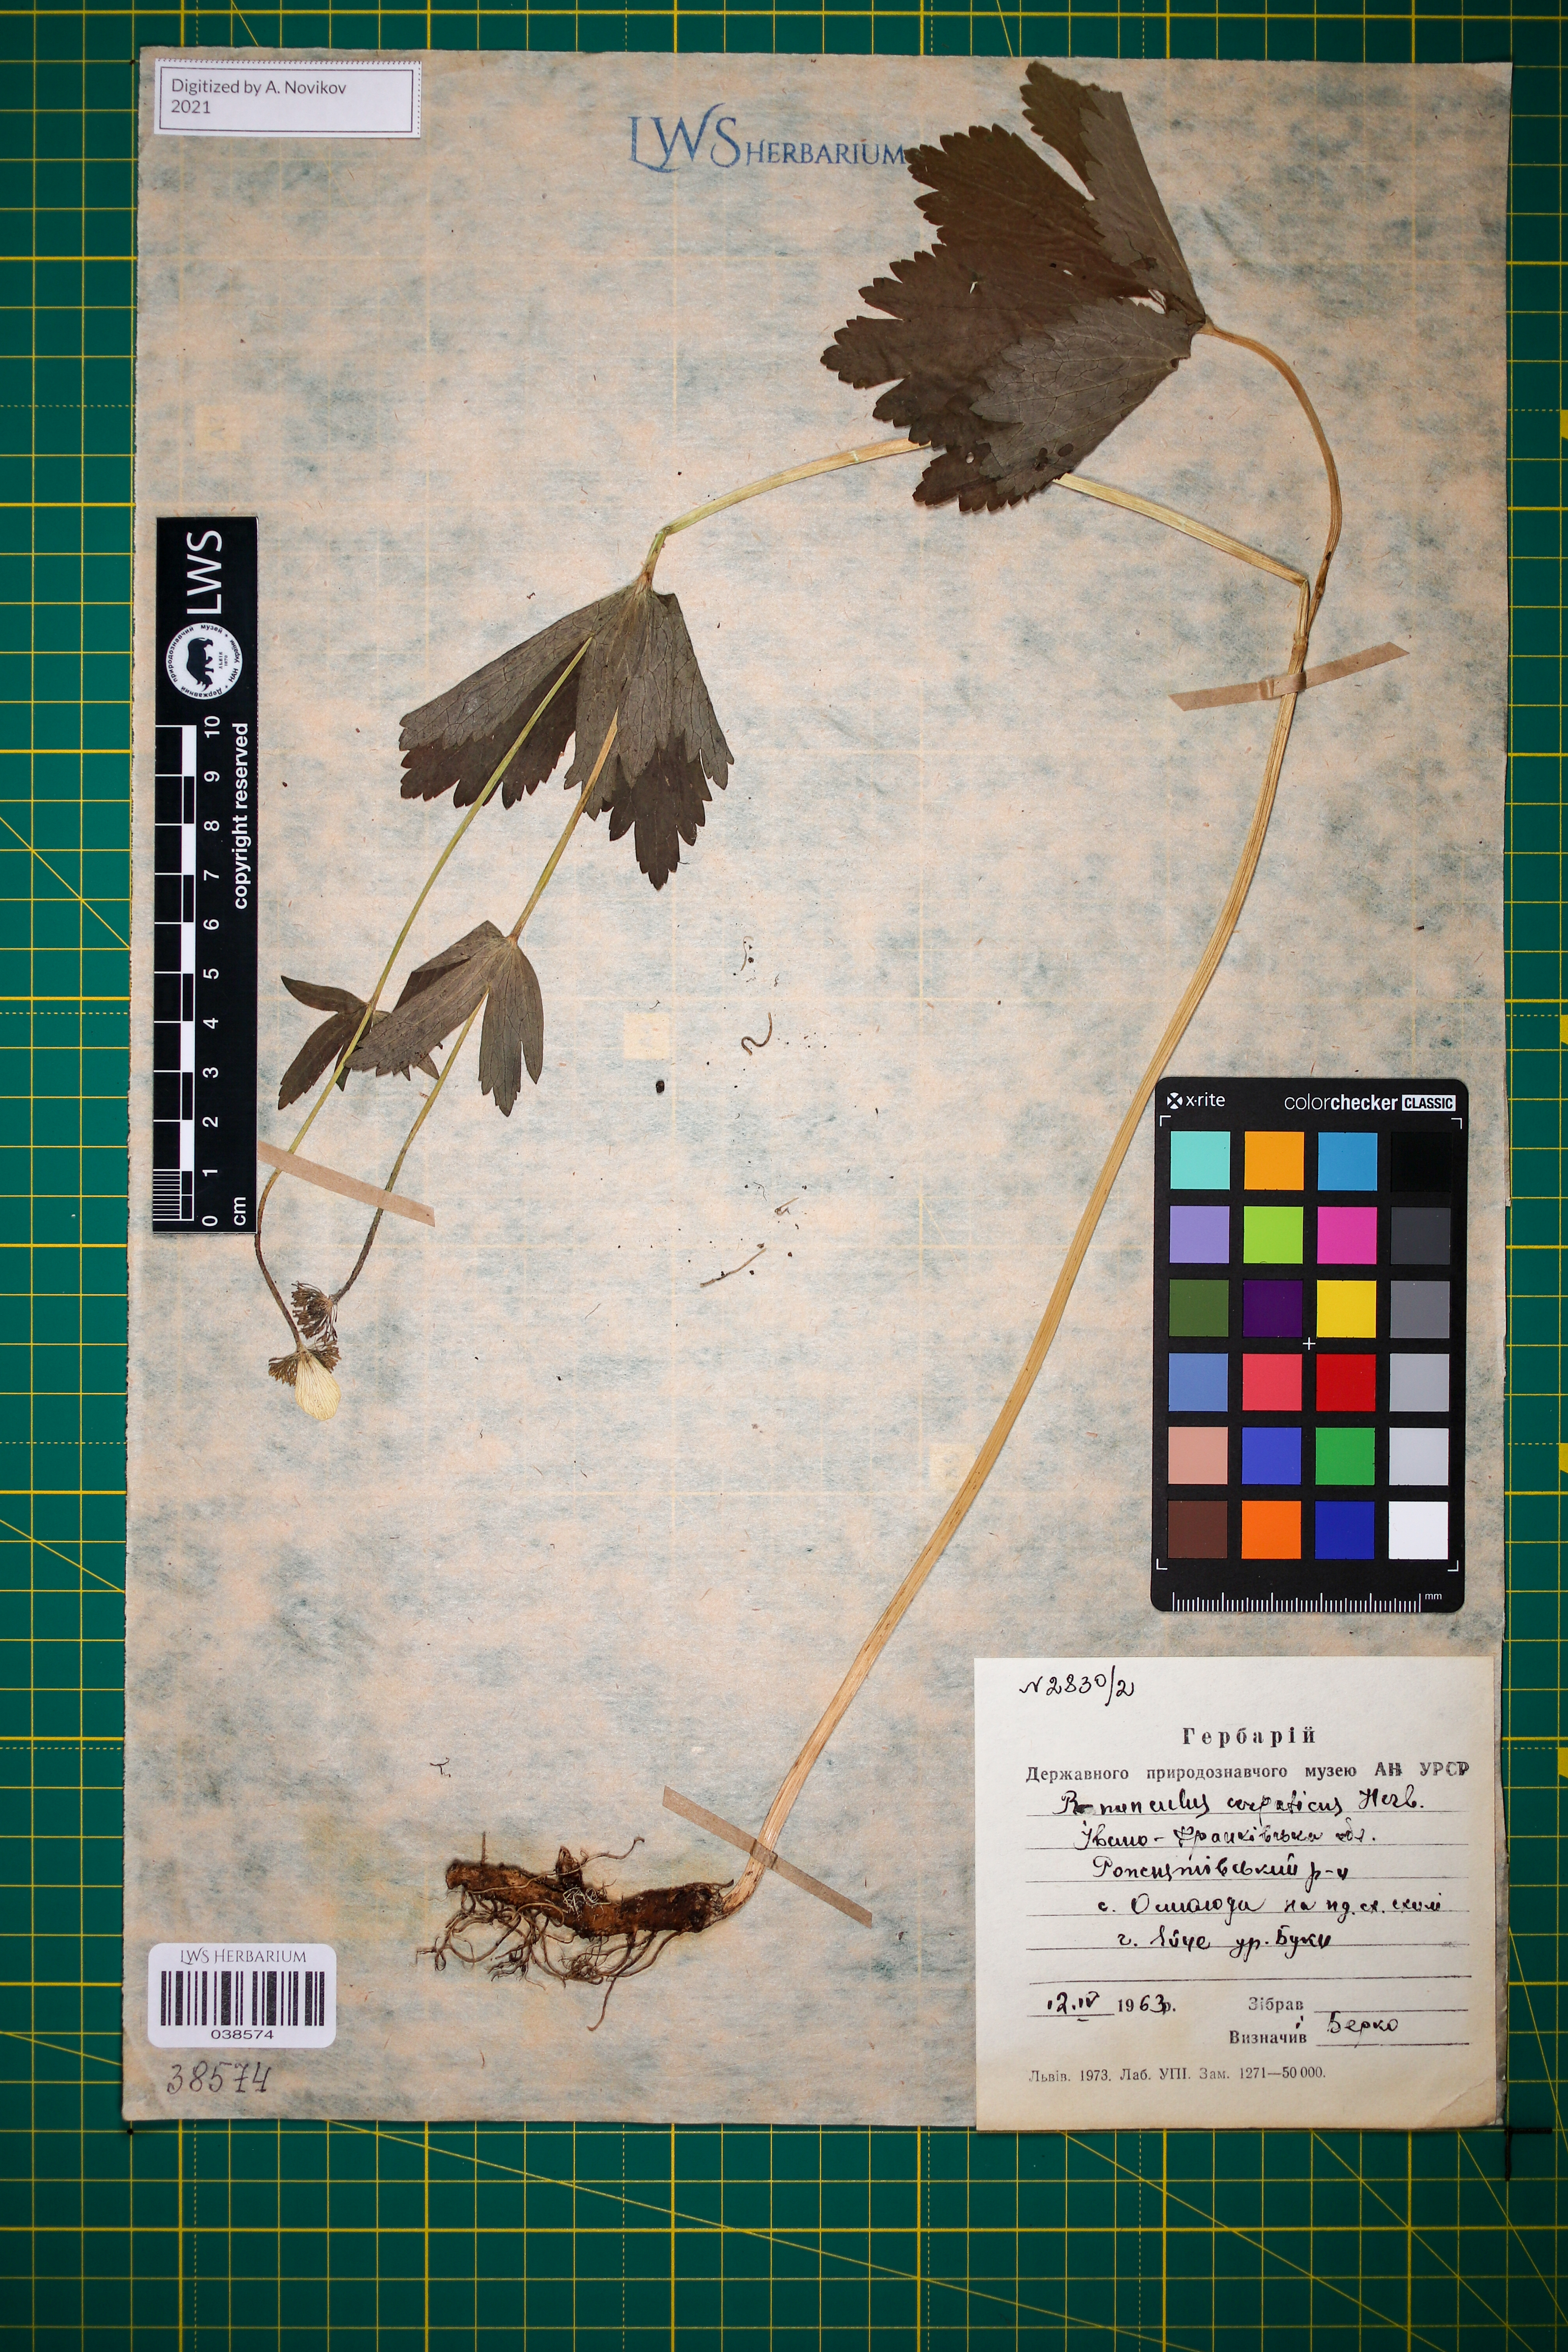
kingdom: Plantae
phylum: Tracheophyta
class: Magnoliopsida
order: Ranunculales
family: Ranunculaceae
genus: Ranunculus
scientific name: Ranunculus carpaticus
